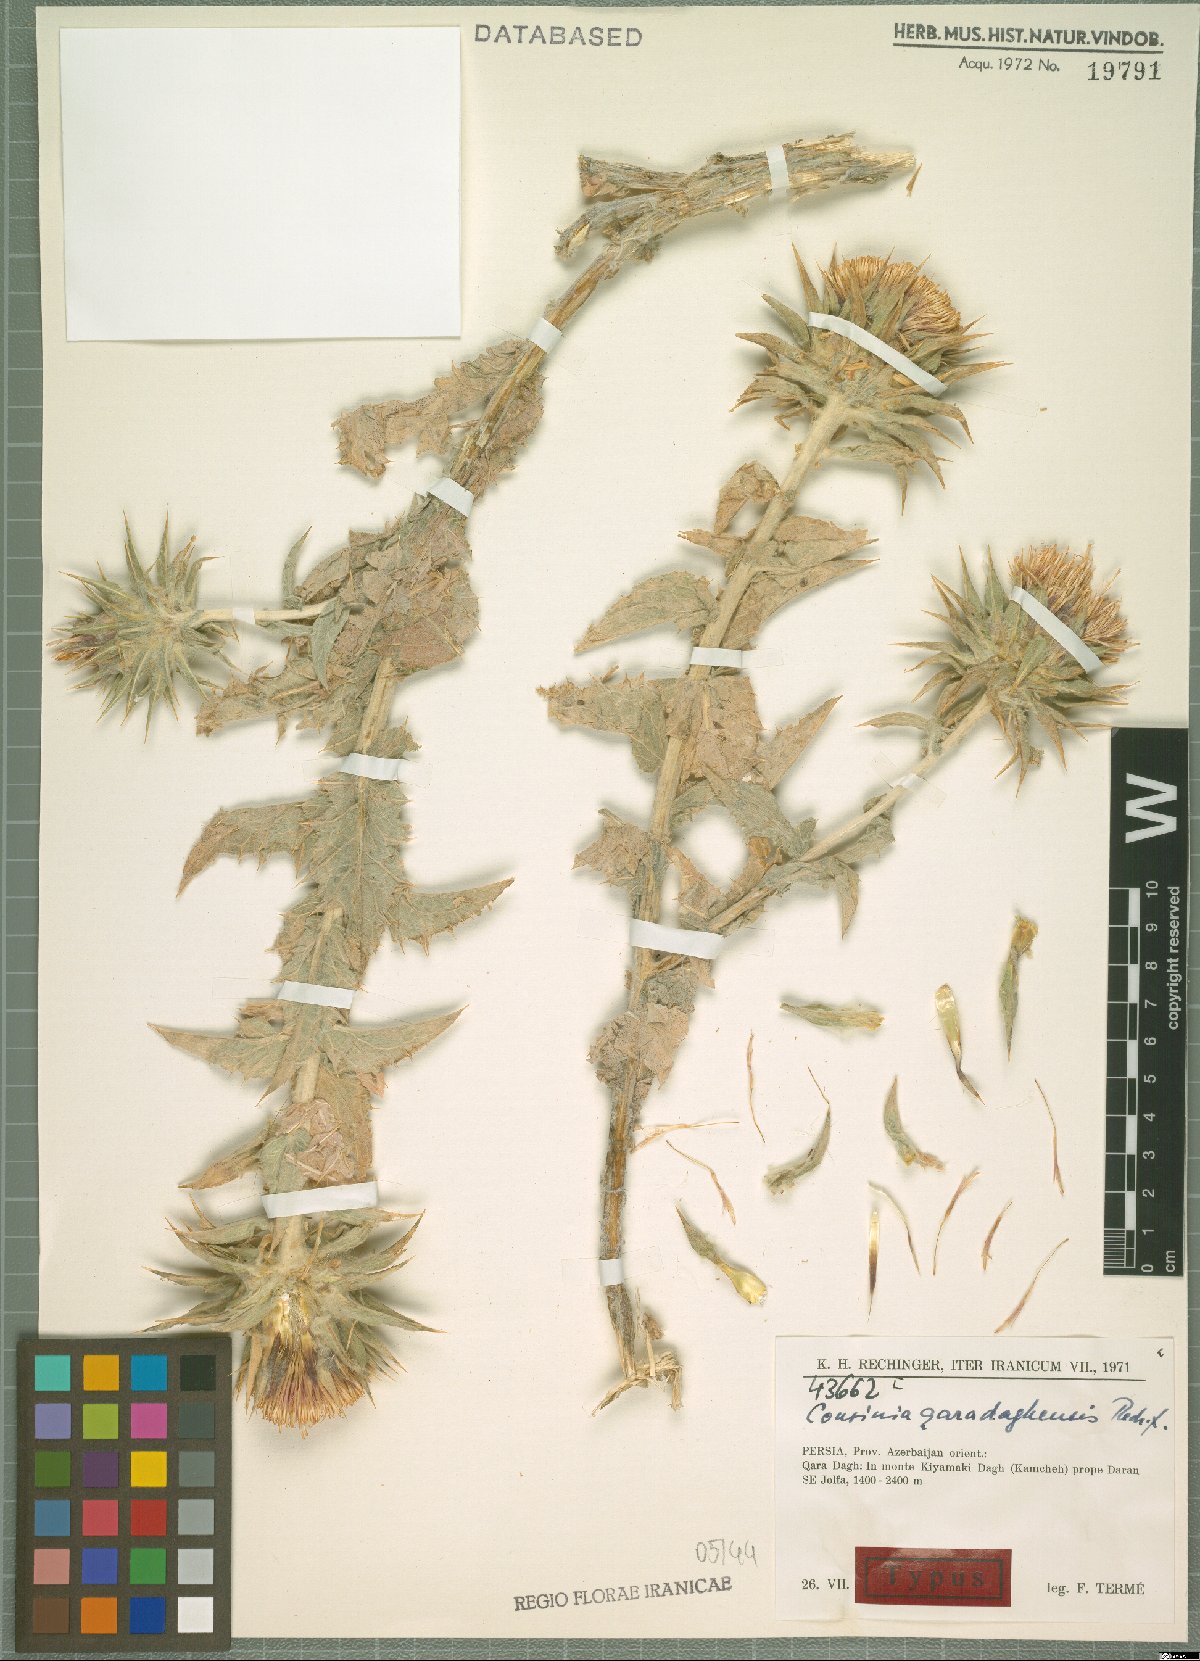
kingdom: Plantae
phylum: Tracheophyta
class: Magnoliopsida
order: Asterales
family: Asteraceae
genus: Cousinia
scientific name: Cousinia qaradaghensis
